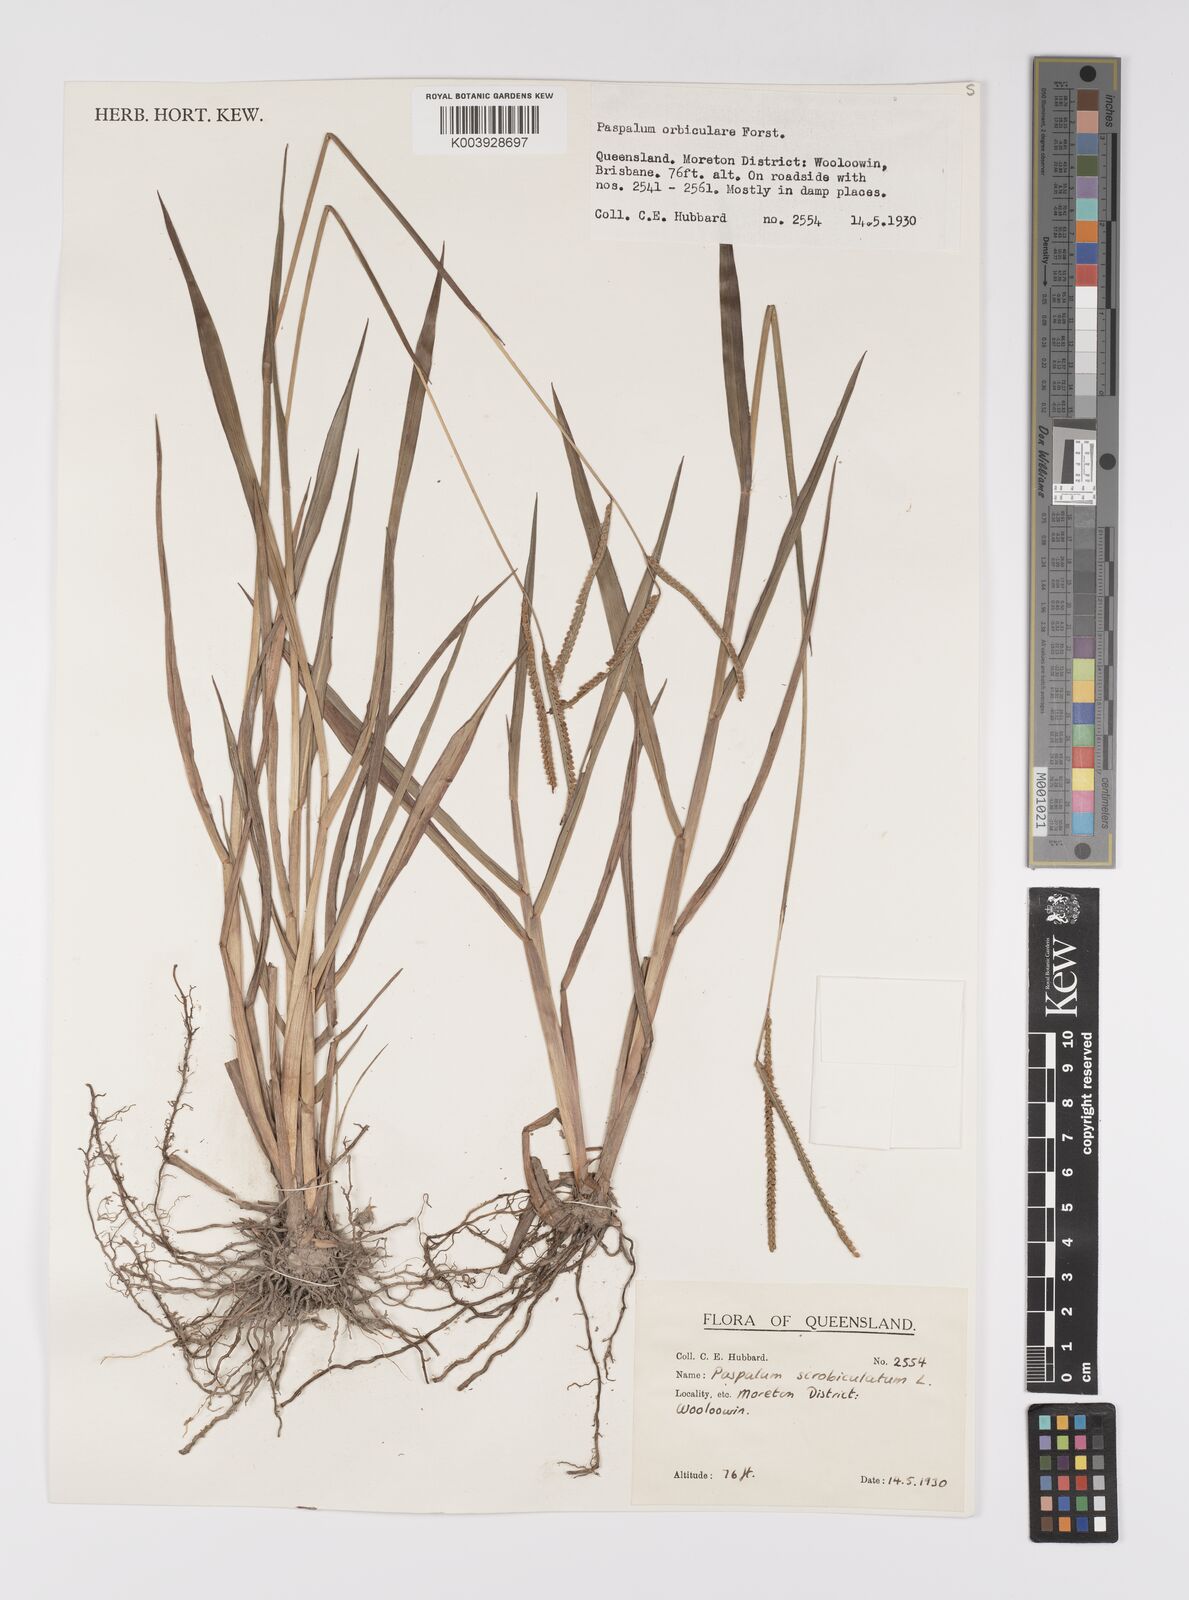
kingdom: Plantae
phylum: Tracheophyta
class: Liliopsida
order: Poales
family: Poaceae
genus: Paspalum
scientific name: Paspalum scrobiculatum
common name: Kodo millet
